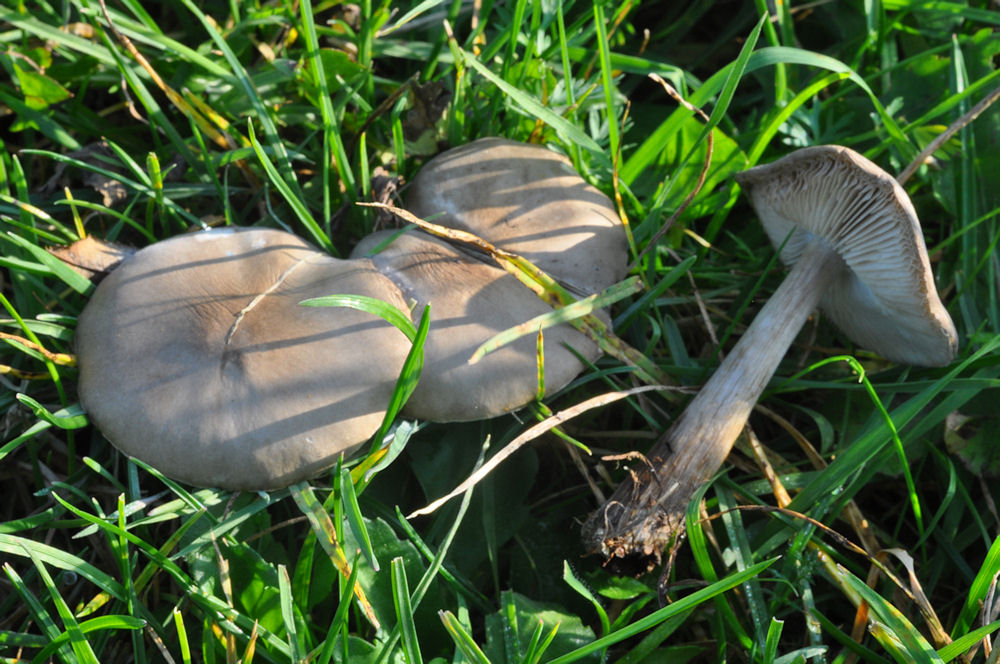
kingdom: Fungi
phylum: Basidiomycota
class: Agaricomycetes
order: Agaricales
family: Tricholomataceae
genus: Melanoleuca
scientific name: Melanoleuca polioleuca
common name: almindelig munkehat
